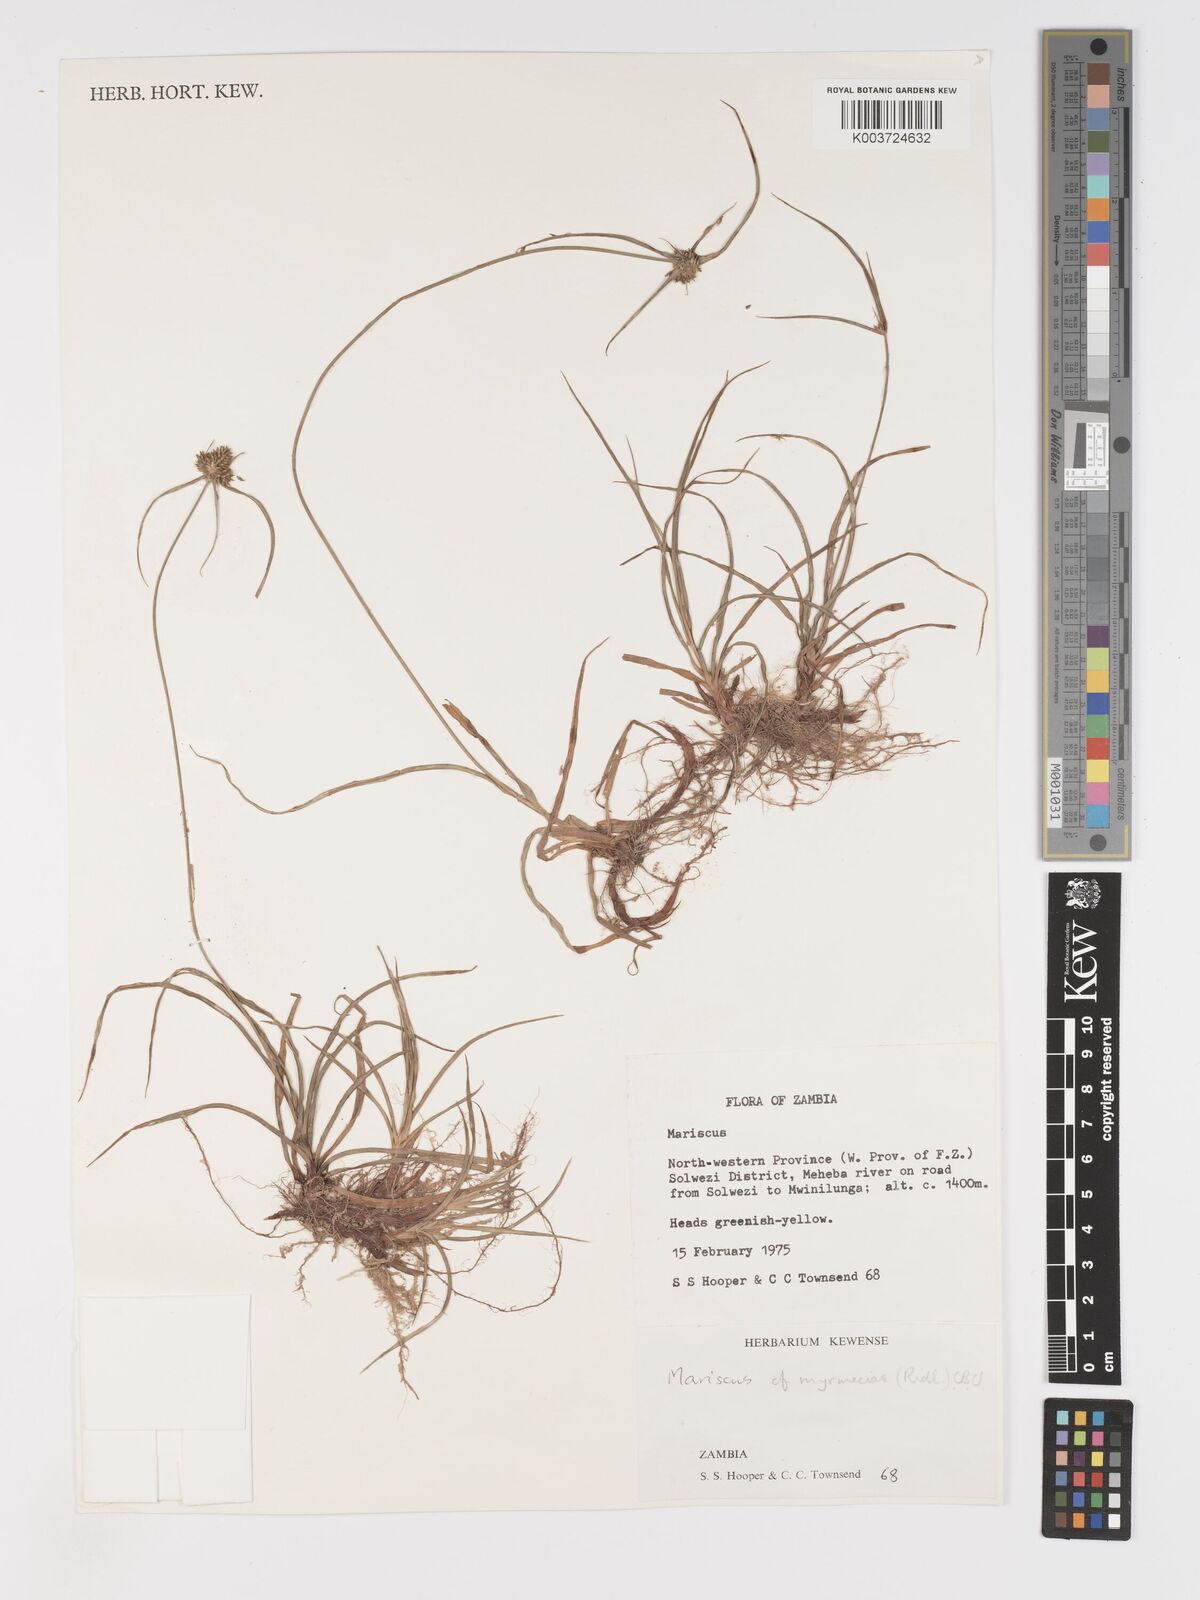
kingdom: Plantae
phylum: Tracheophyta
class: Liliopsida
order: Poales
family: Cyperaceae
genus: Cyperus
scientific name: Cyperus myrmecias
